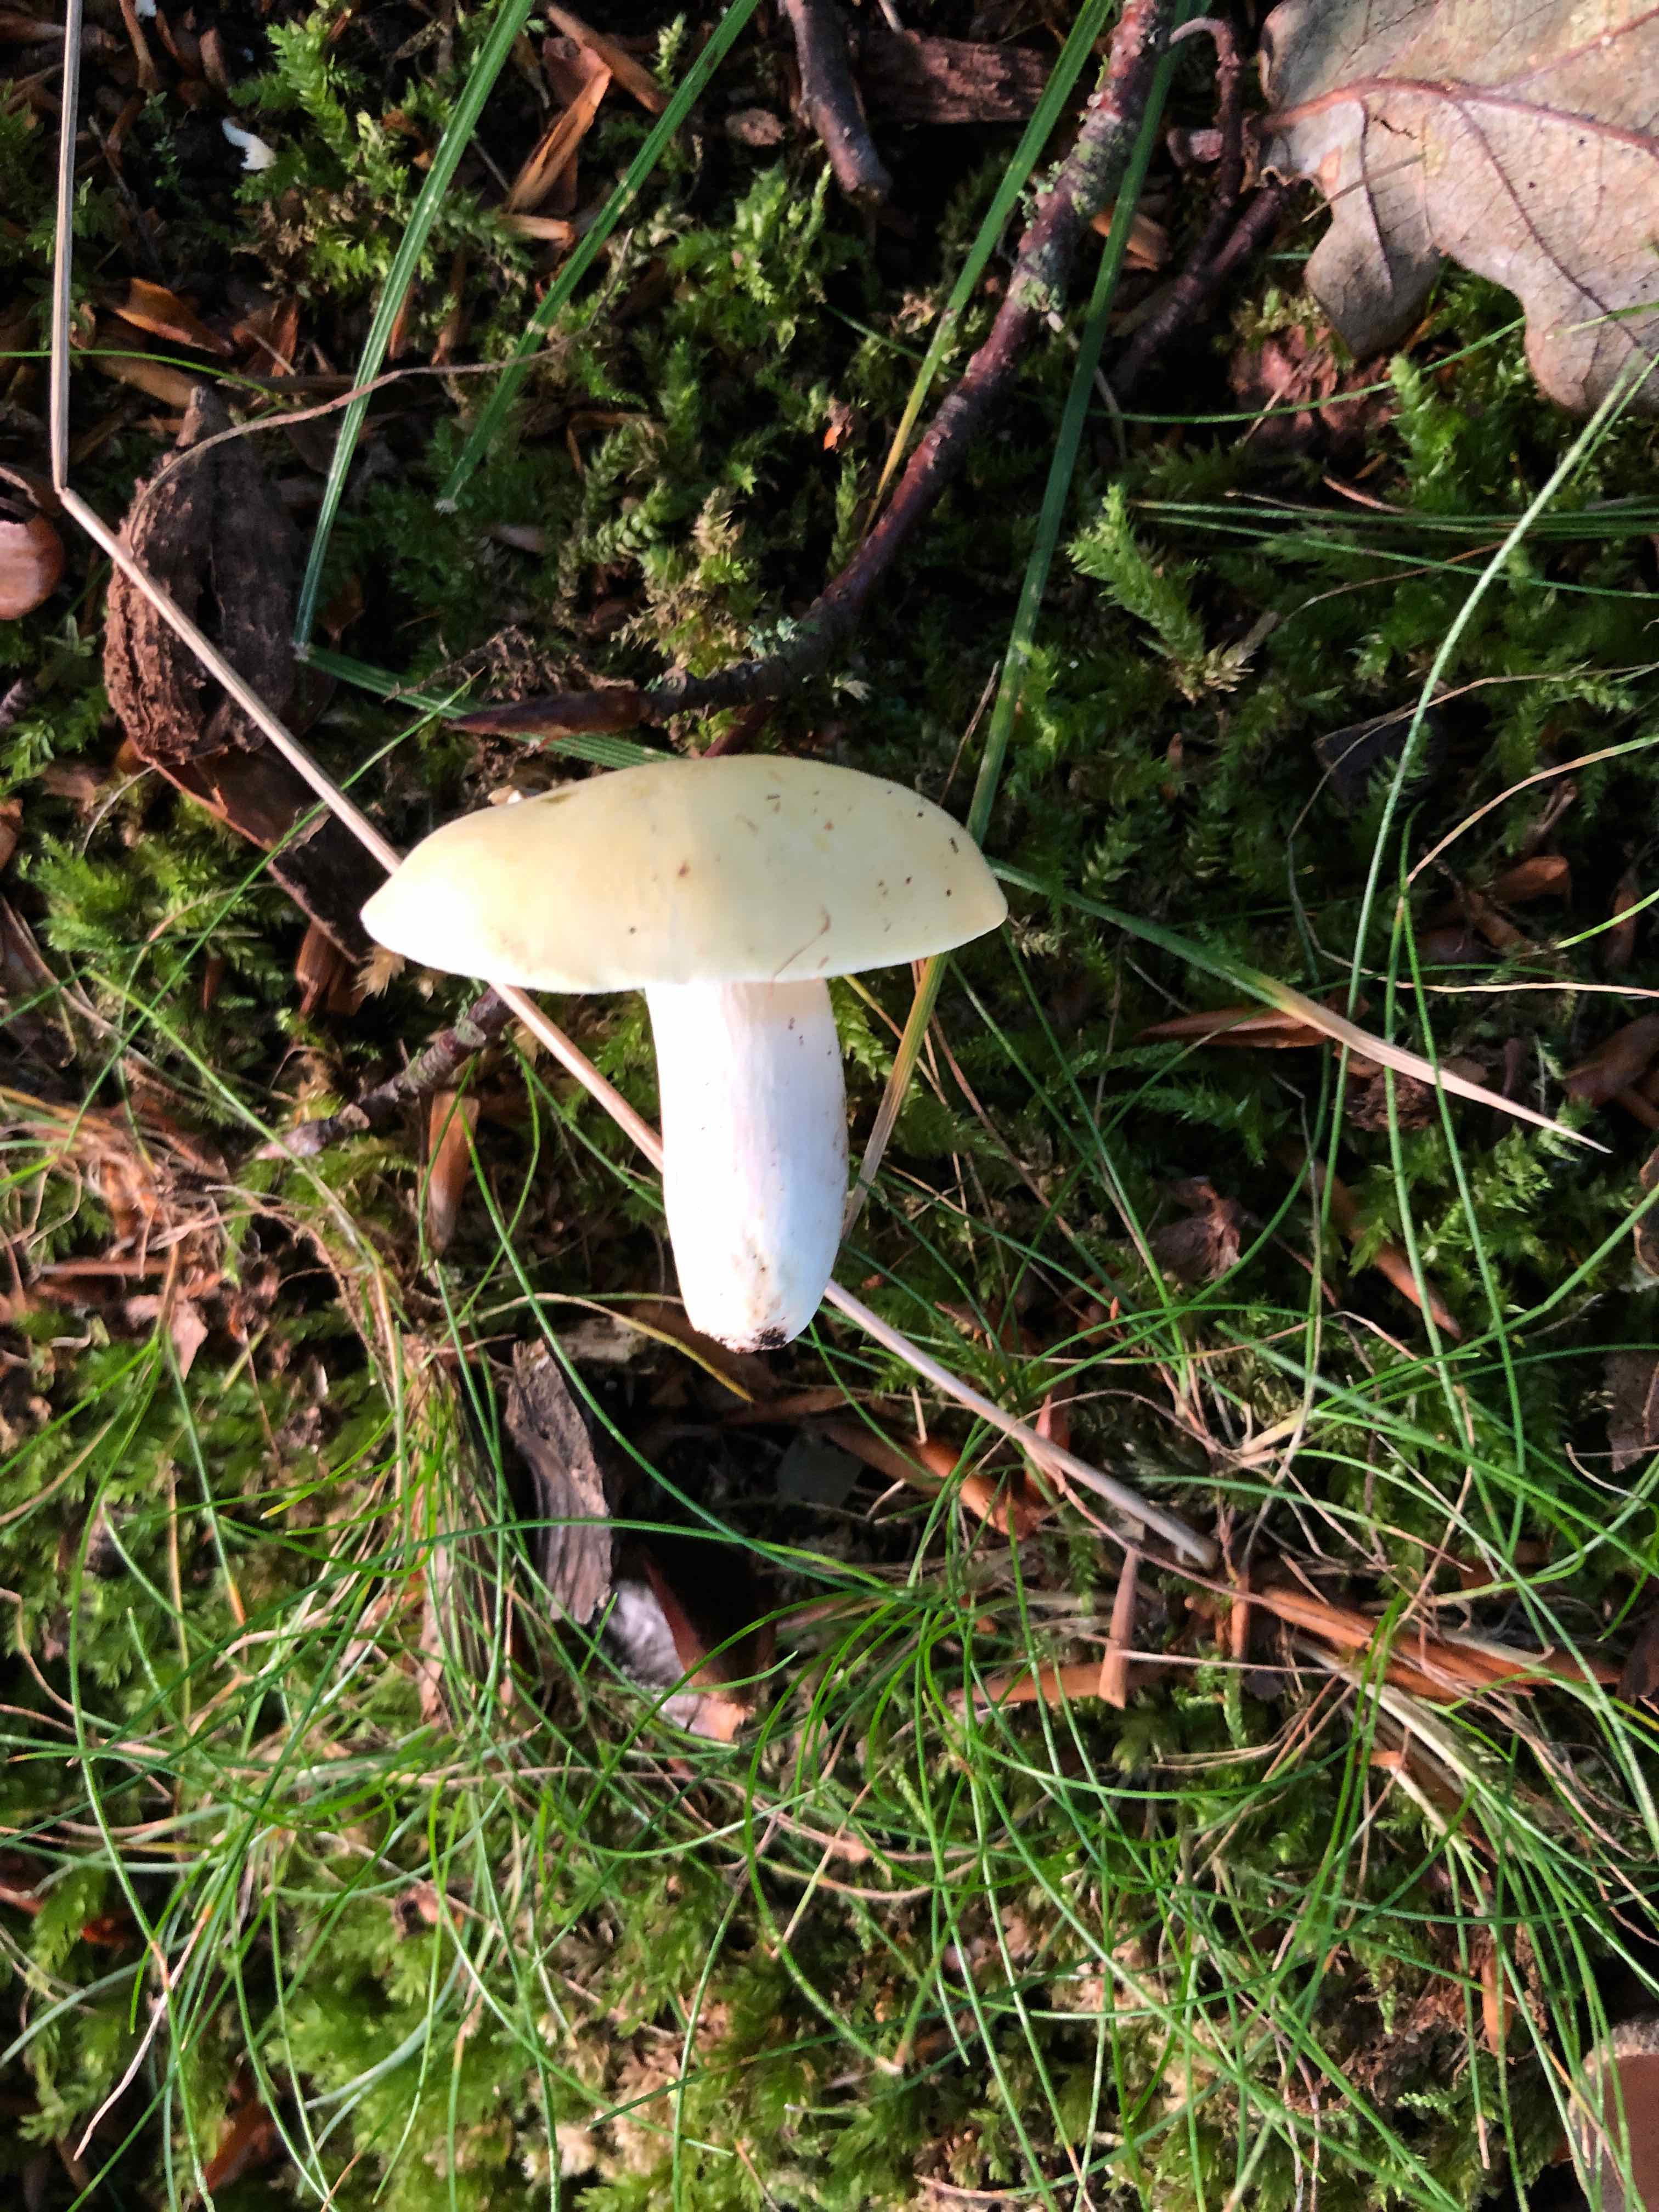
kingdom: Fungi
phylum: Basidiomycota
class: Agaricomycetes
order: Russulales
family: Russulaceae
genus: Russula
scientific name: Russula violeipes
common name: ferskengul skørhat
